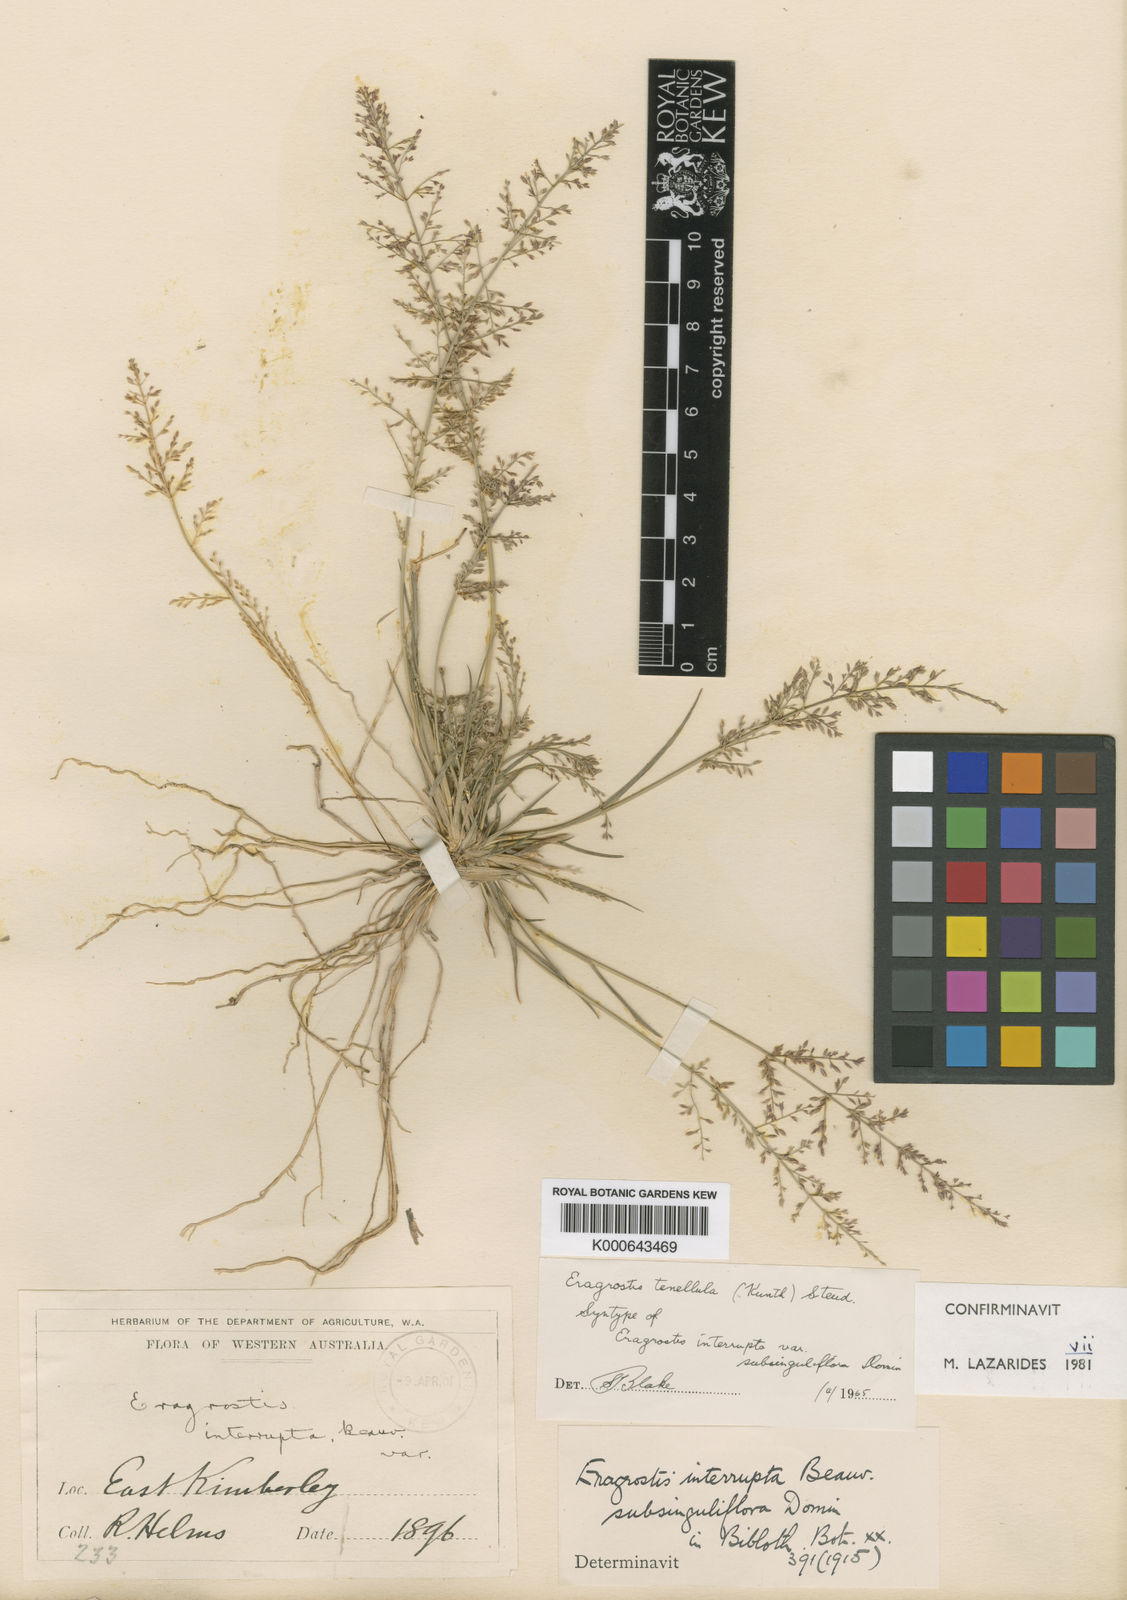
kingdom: Plantae
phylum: Tracheophyta
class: Liliopsida
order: Poales
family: Poaceae
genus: Eragrostis
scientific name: Eragrostis tenellula
